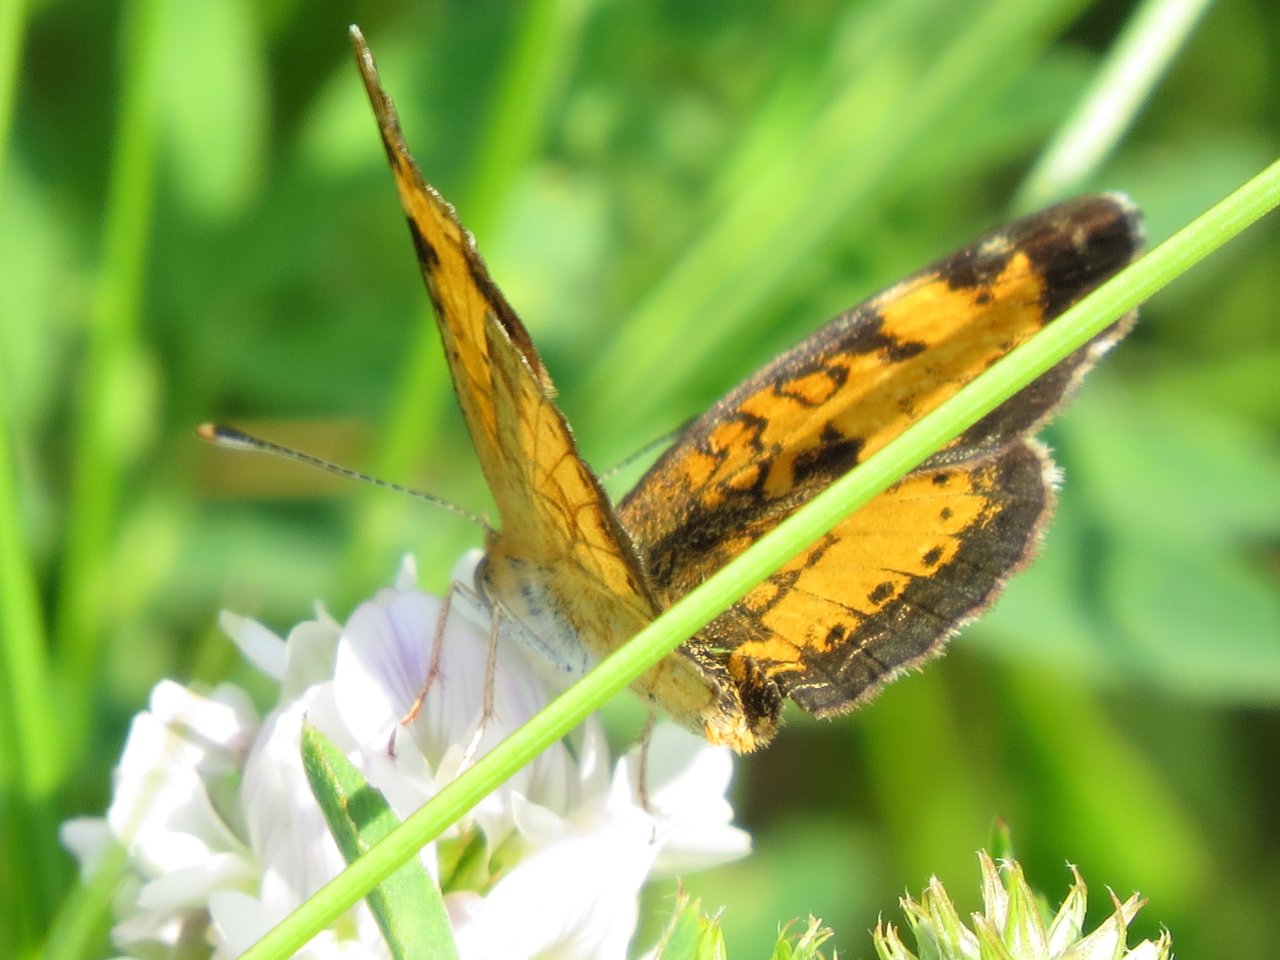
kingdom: Animalia
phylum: Arthropoda
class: Insecta
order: Lepidoptera
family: Nymphalidae
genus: Phyciodes
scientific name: Phyciodes tharos
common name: Northern Crescent
